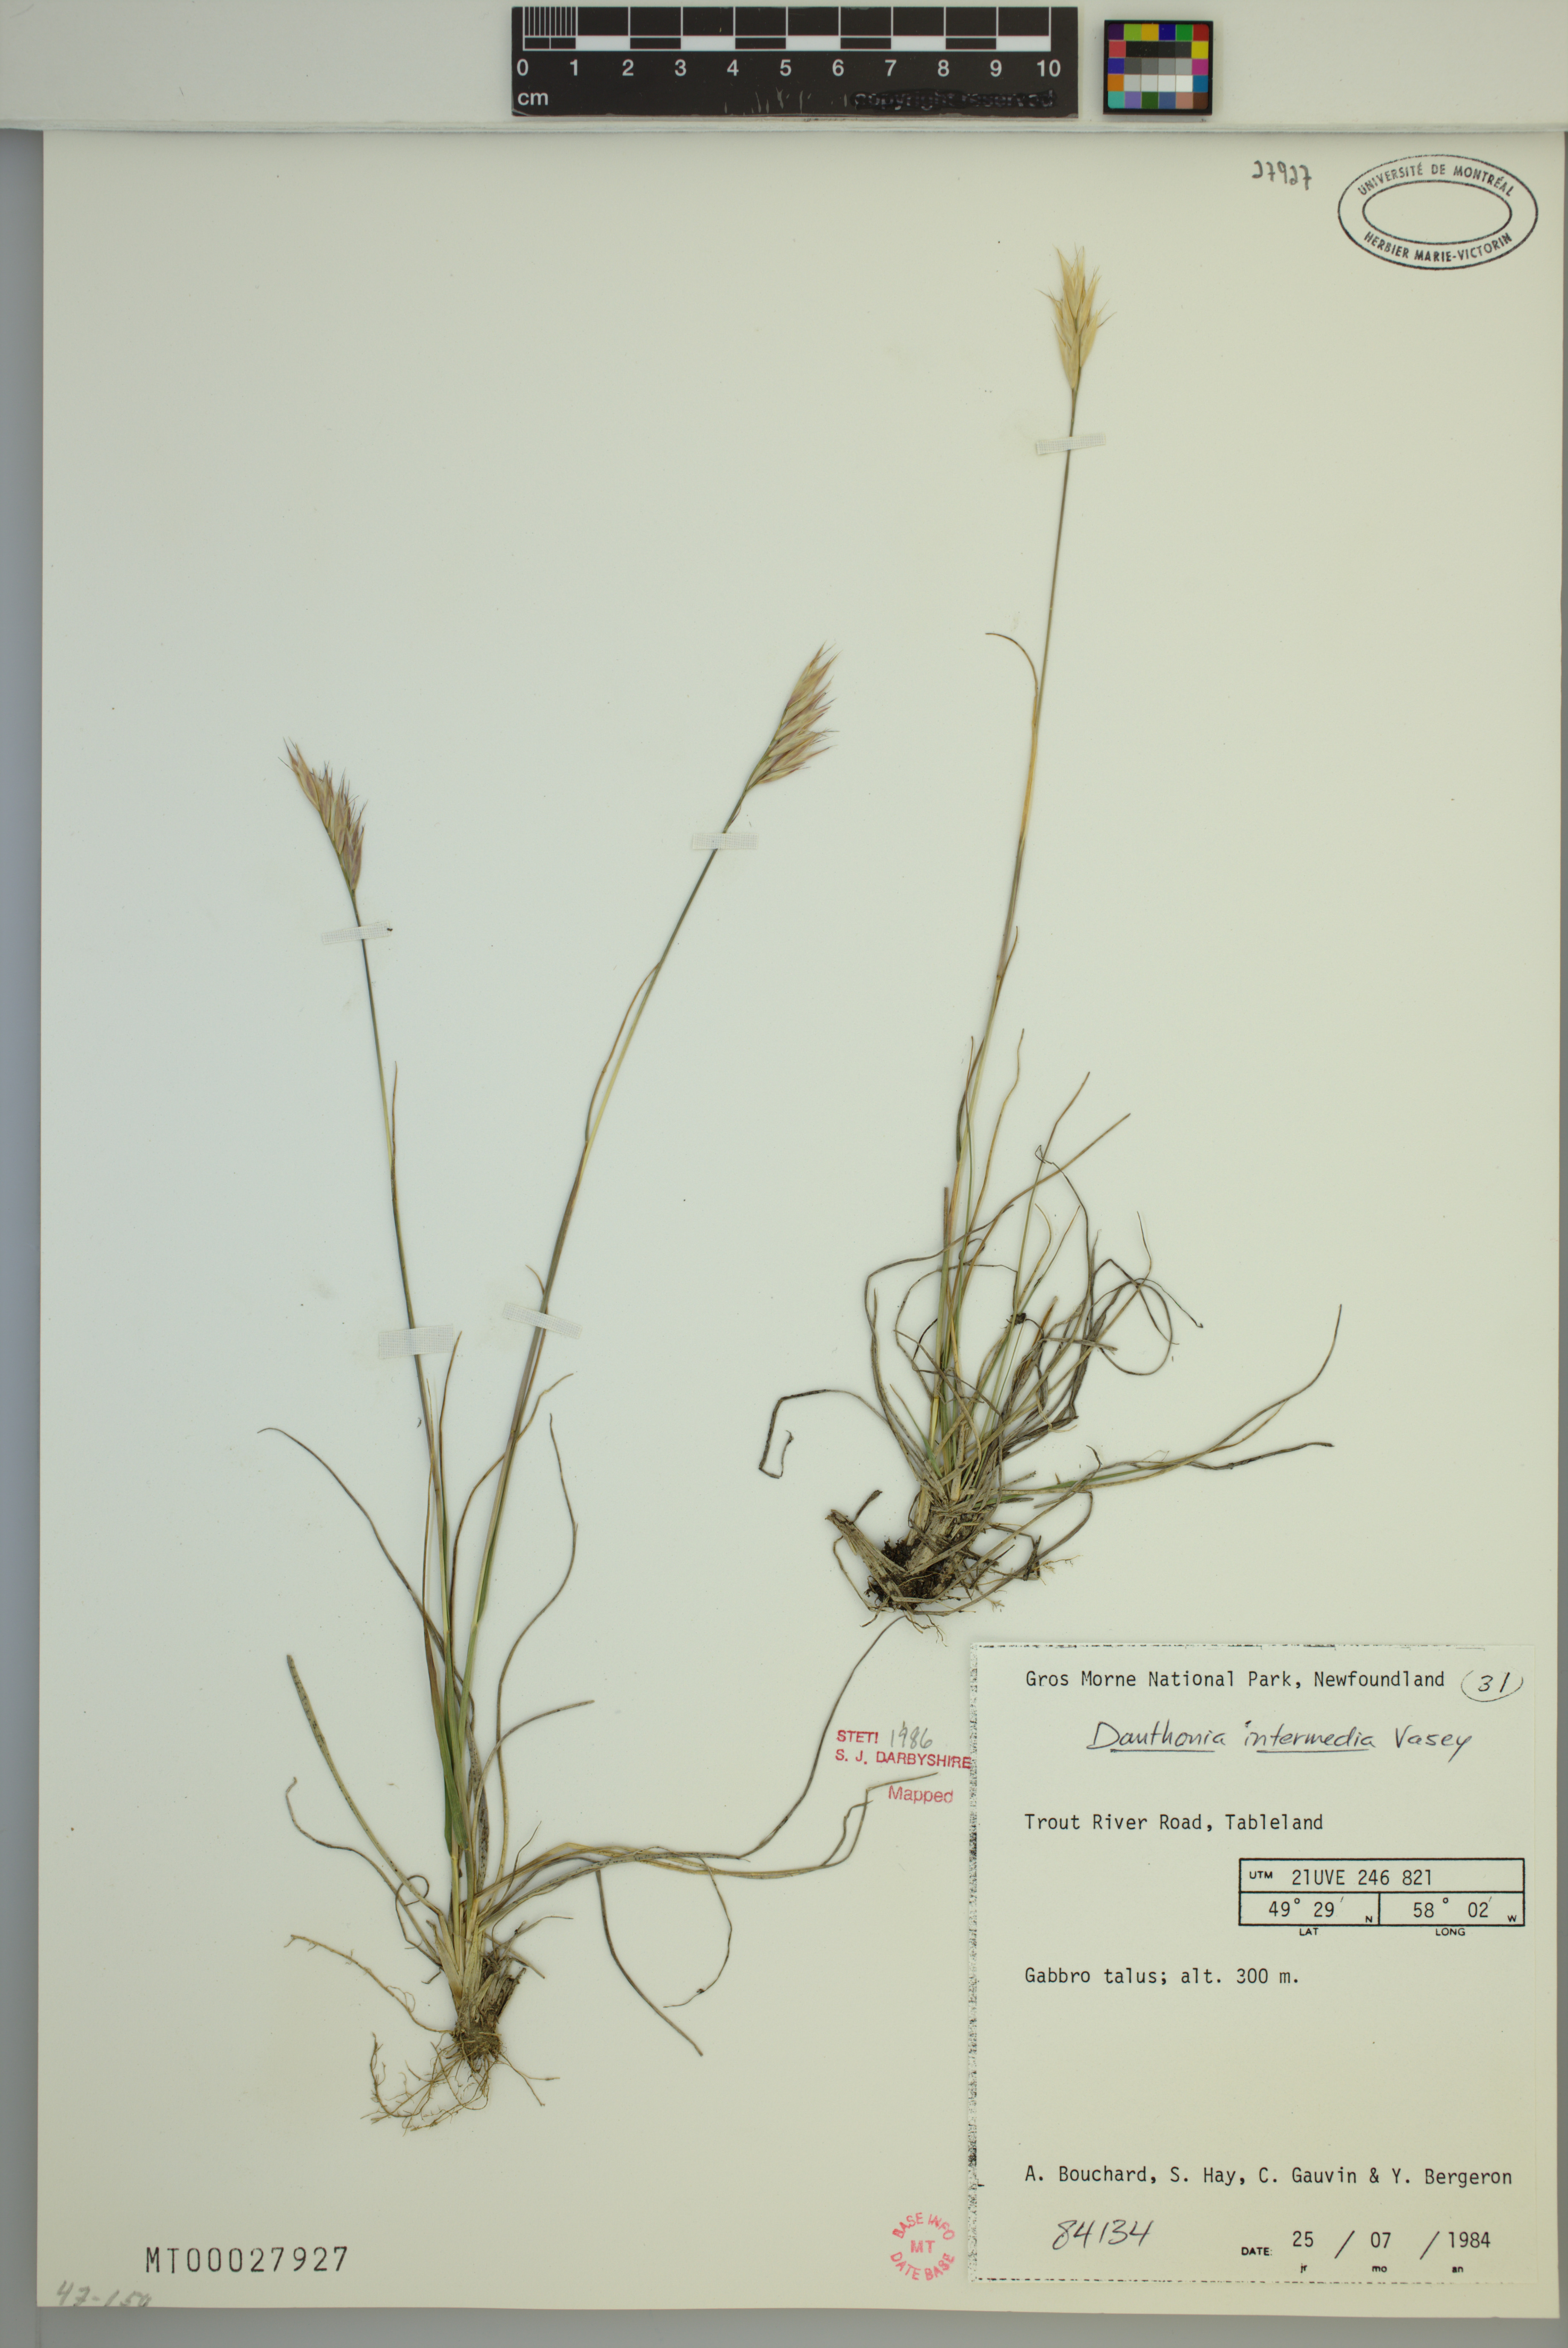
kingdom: Plantae
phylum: Tracheophyta
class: Liliopsida
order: Poales
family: Poaceae
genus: Danthonia
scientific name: Danthonia intermedia
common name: Intermediate oat grass
